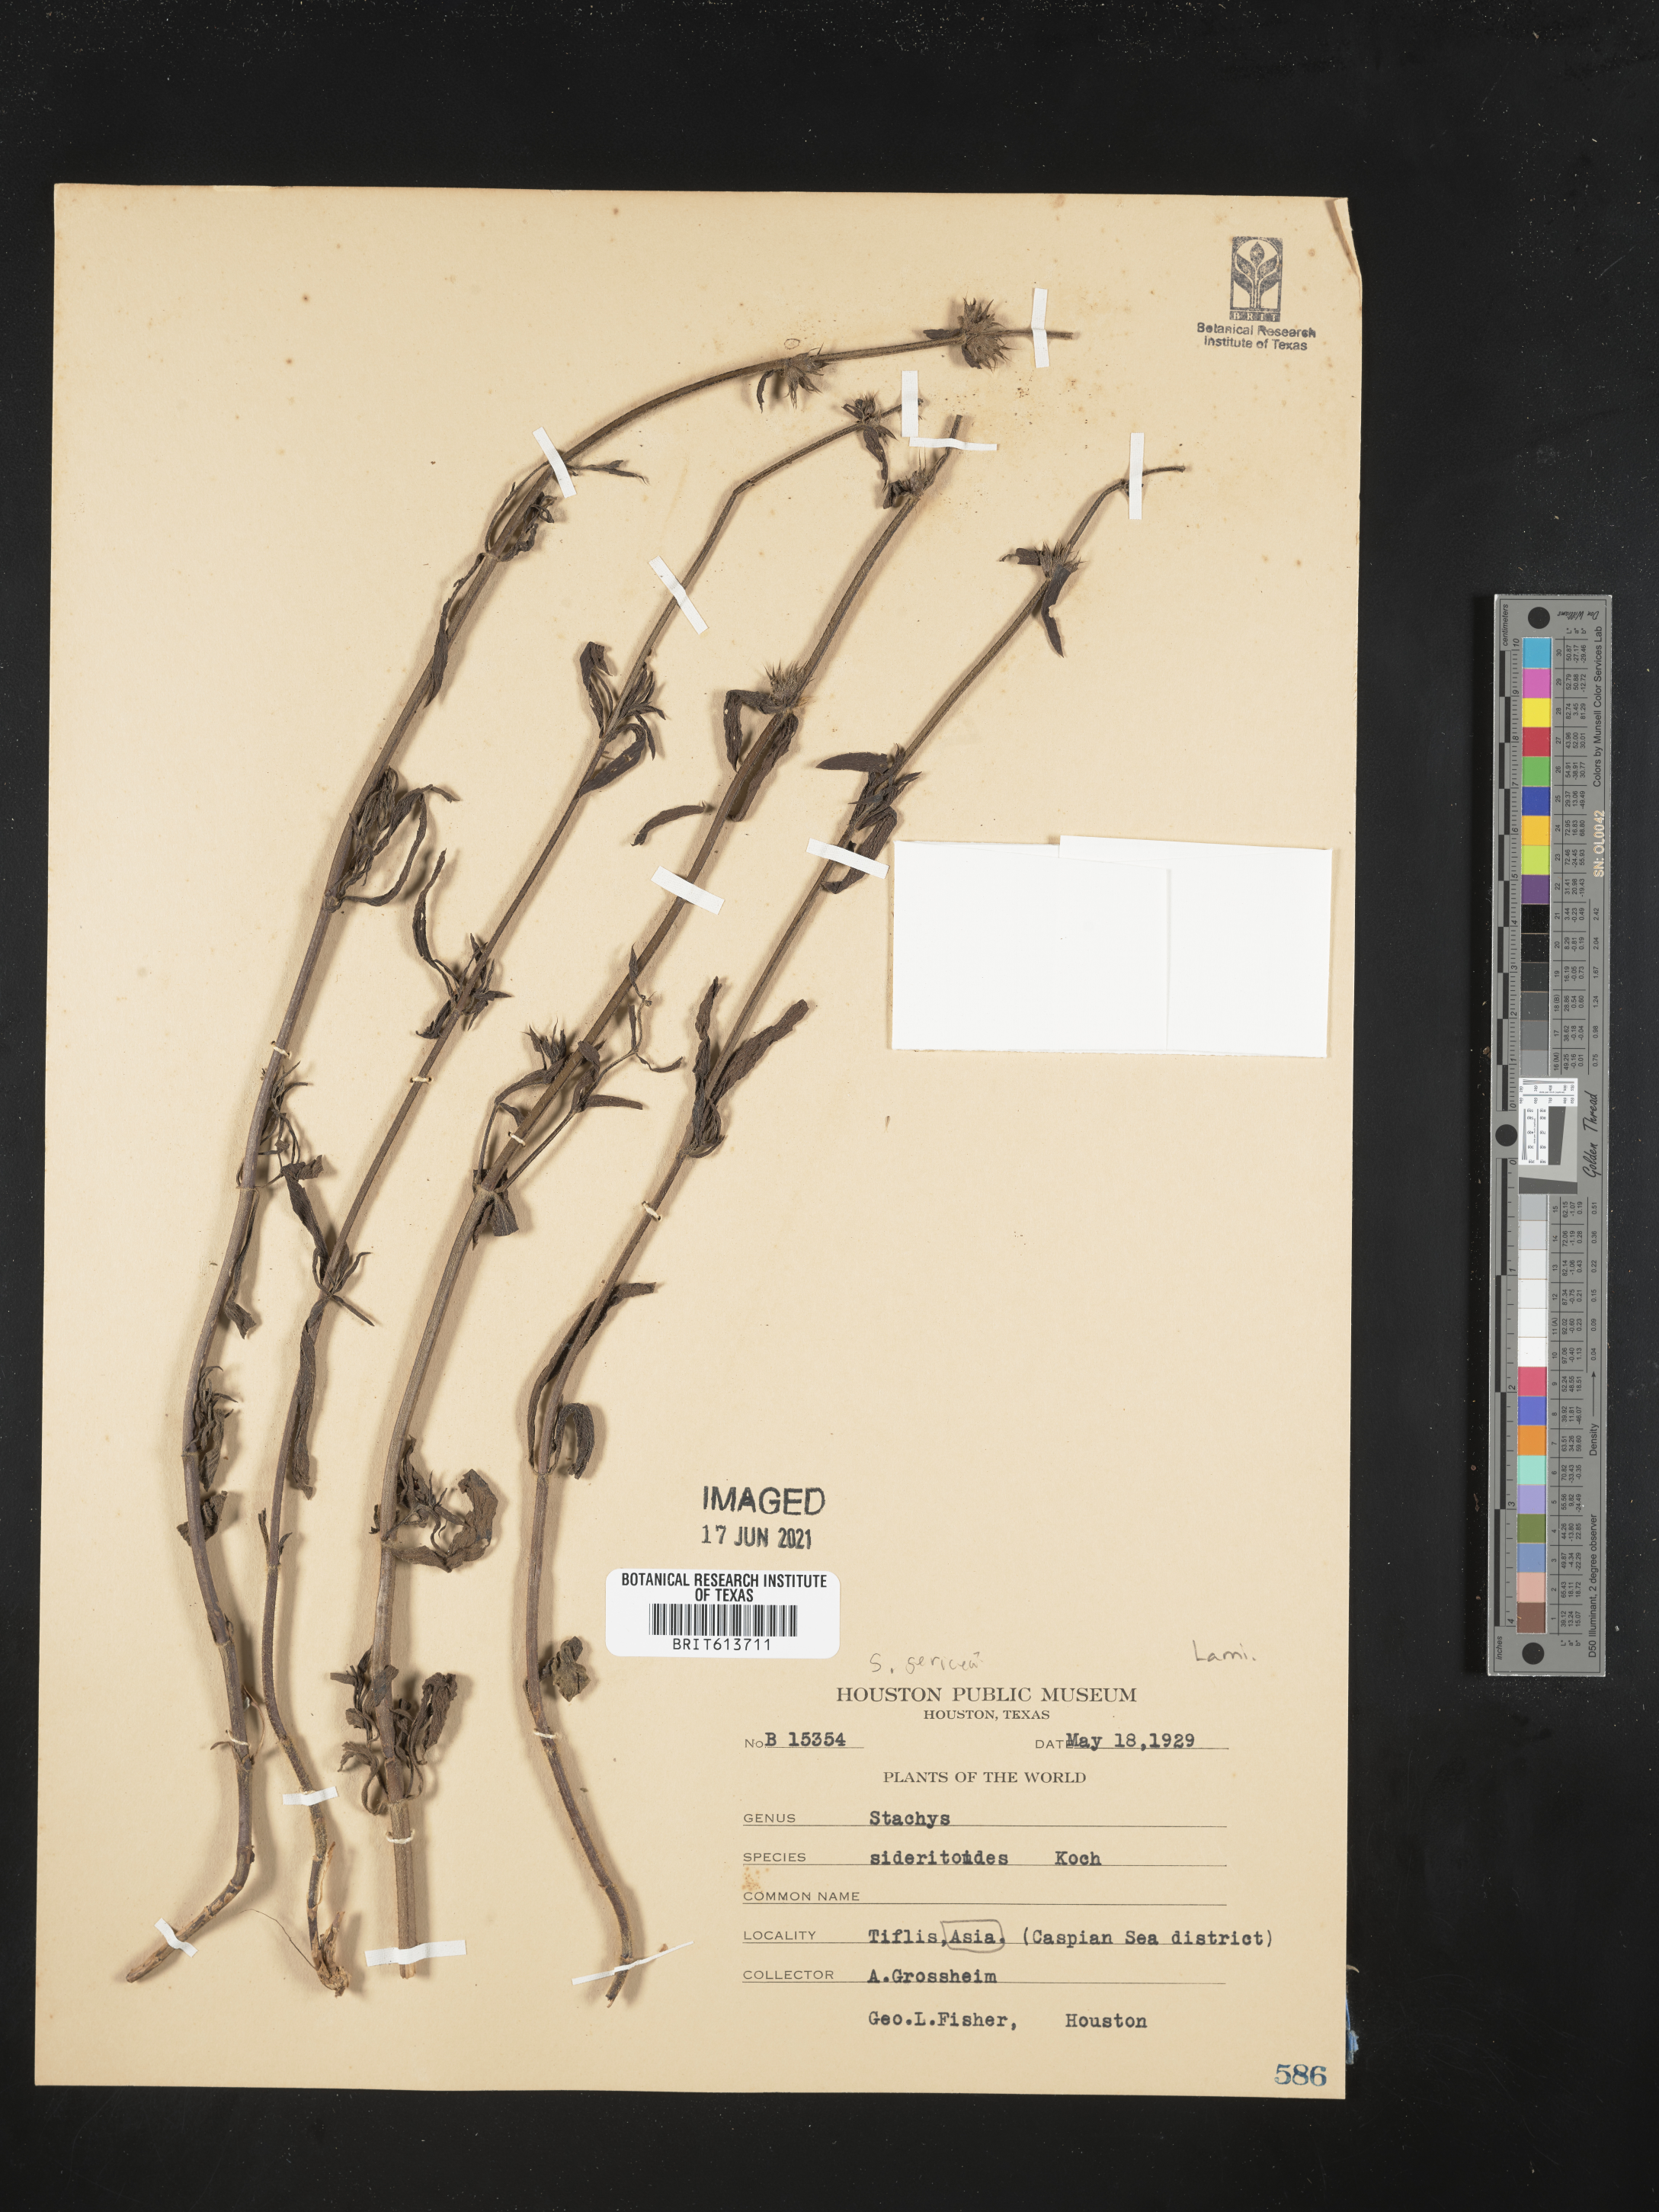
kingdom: Plantae
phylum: Tracheophyta
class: Magnoliopsida
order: Lamiales
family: Lamiaceae
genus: Stachys
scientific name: Stachys sericea
